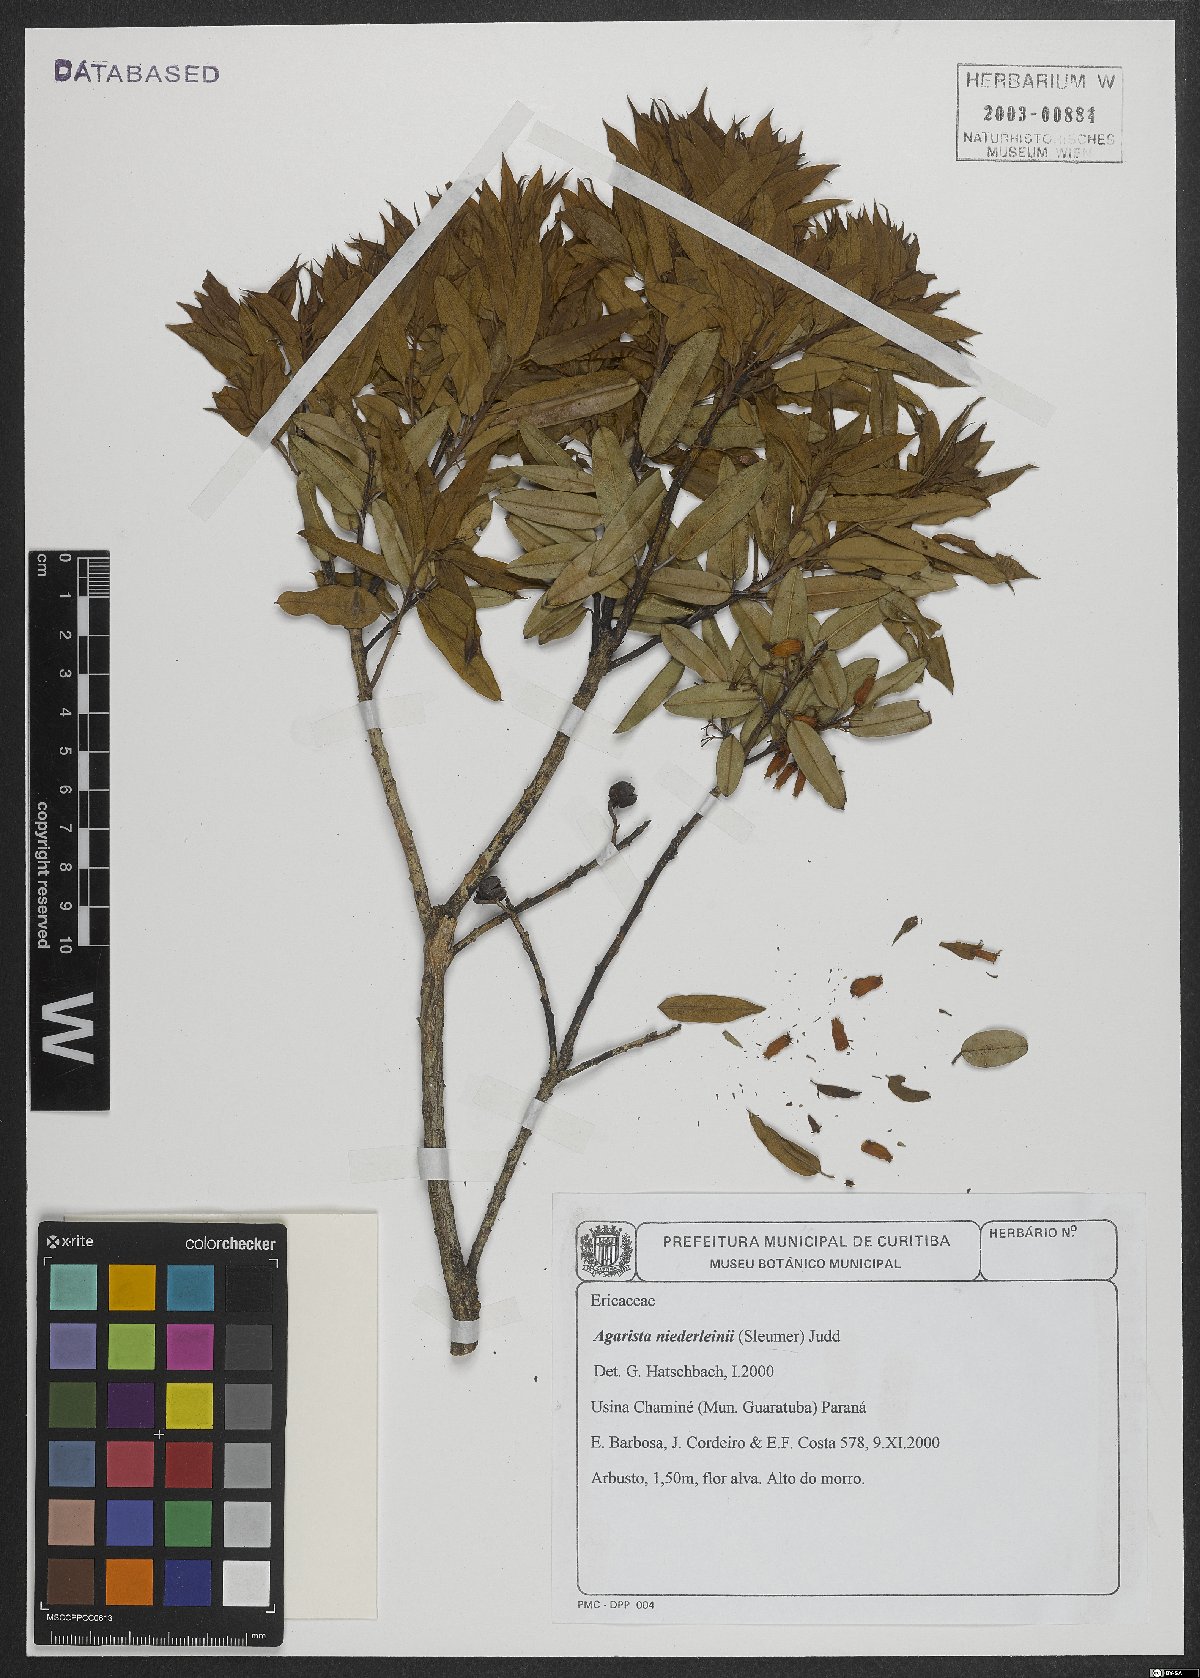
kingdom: Plantae
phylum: Tracheophyta
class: Magnoliopsida
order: Ericales
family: Ericaceae
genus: Agarista
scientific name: Agarista niederleinii
